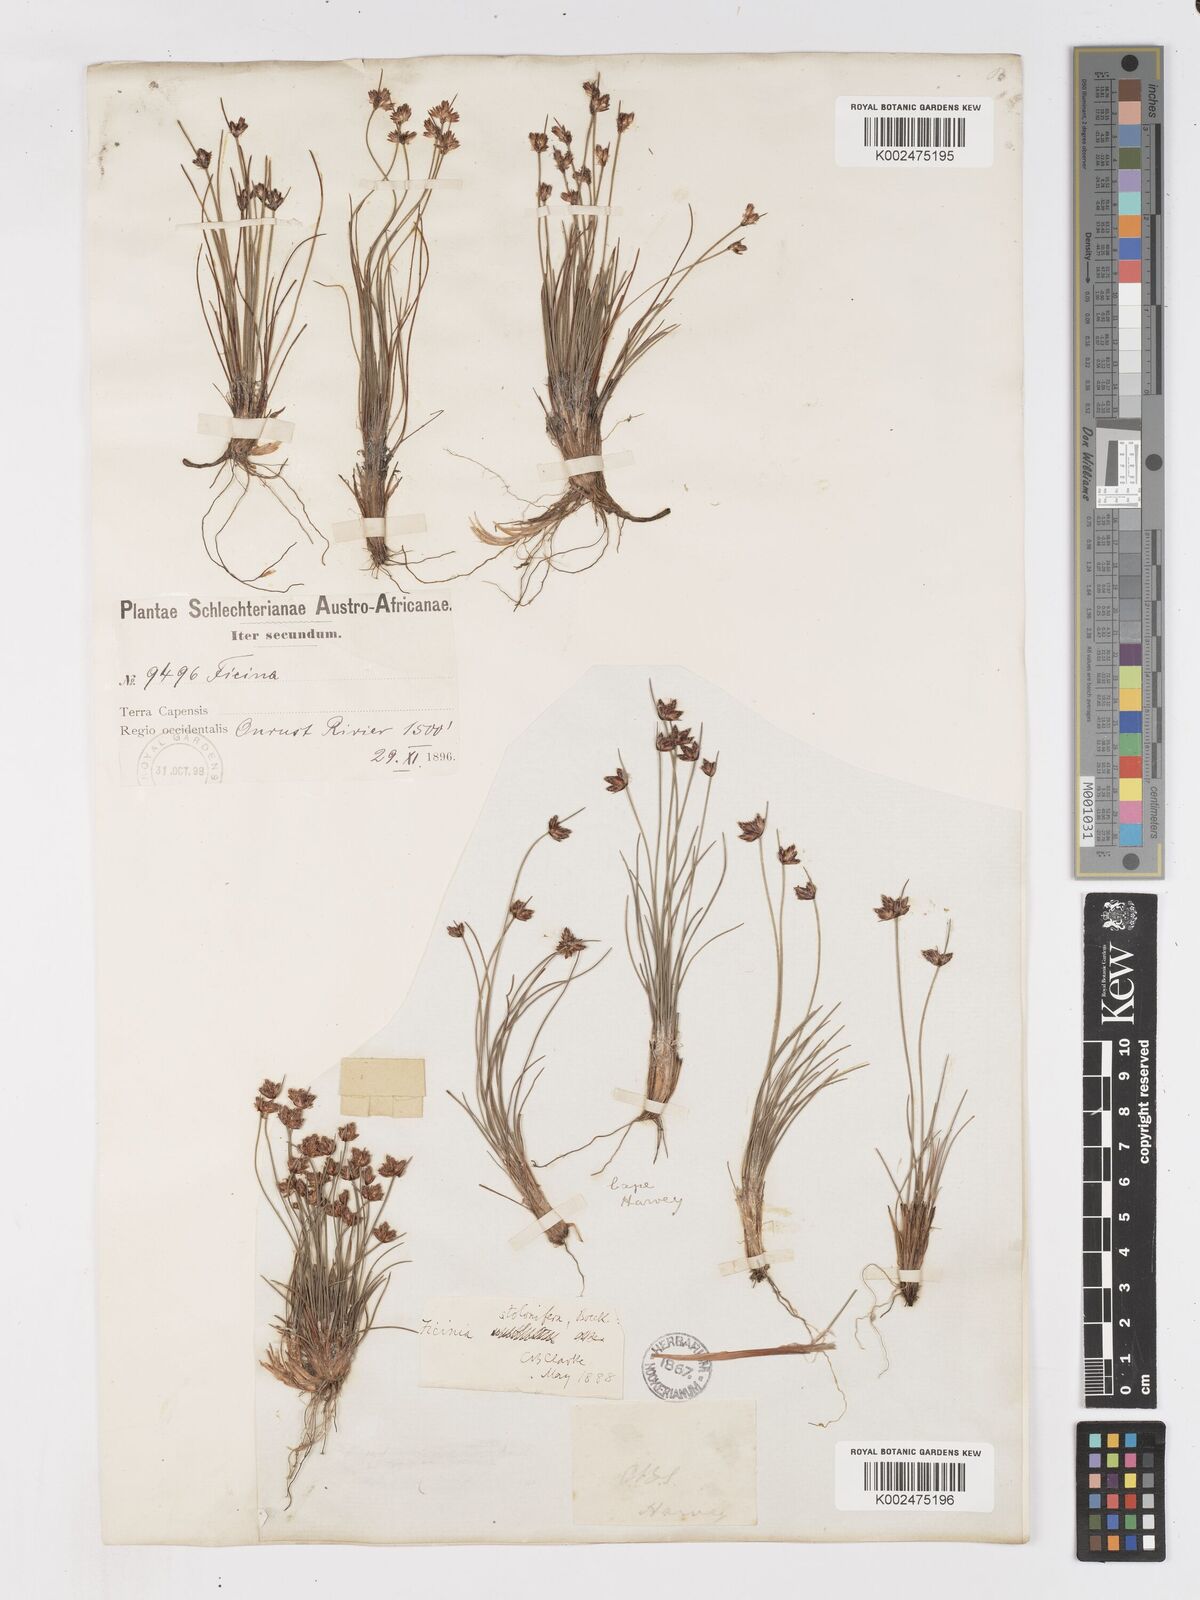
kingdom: Plantae
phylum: Tracheophyta
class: Liliopsida
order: Poales
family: Cyperaceae
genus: Ficinia
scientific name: Ficinia stolonifera
